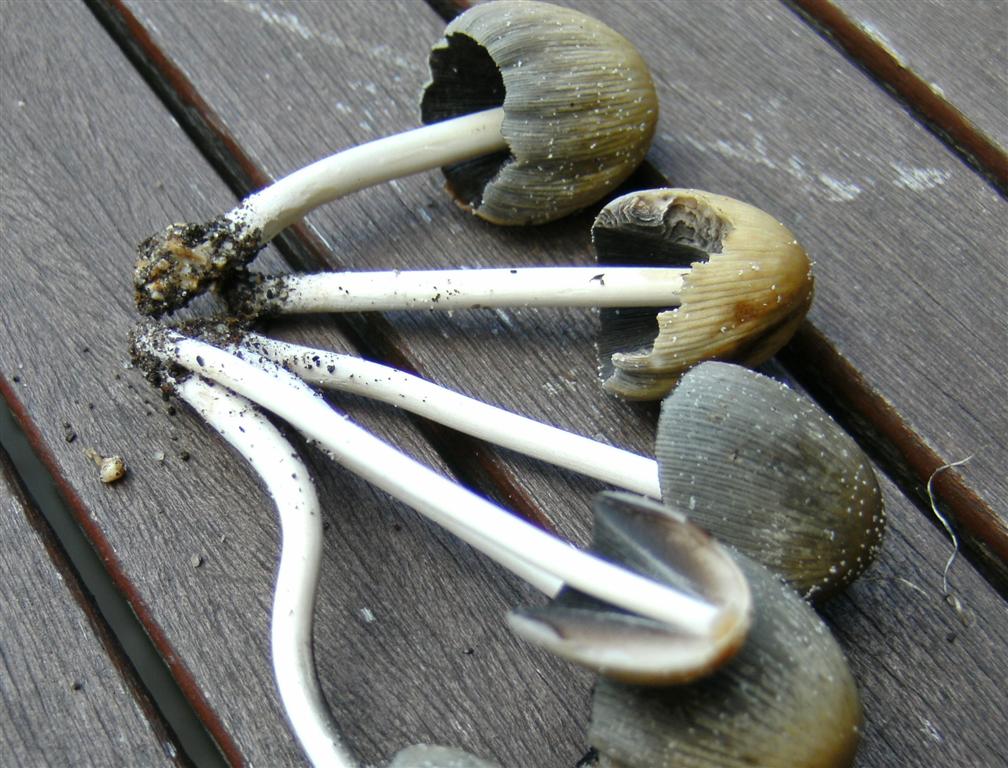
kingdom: Fungi
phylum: Basidiomycota
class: Agaricomycetes
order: Agaricales
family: Psathyrellaceae
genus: Coprinellus
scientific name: Coprinellus micaceus
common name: glimmer-blækhat
